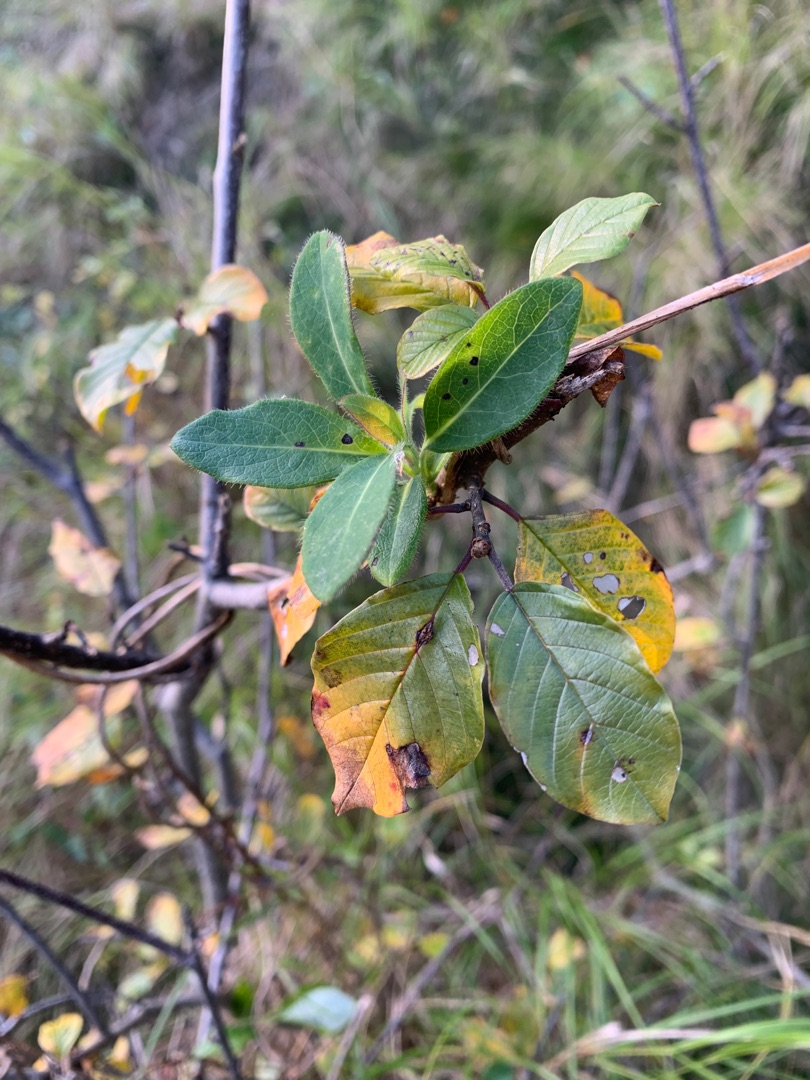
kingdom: Plantae
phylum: Tracheophyta
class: Magnoliopsida
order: Rosales
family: Rhamnaceae
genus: Frangula
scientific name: Frangula alnus
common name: Tørst
